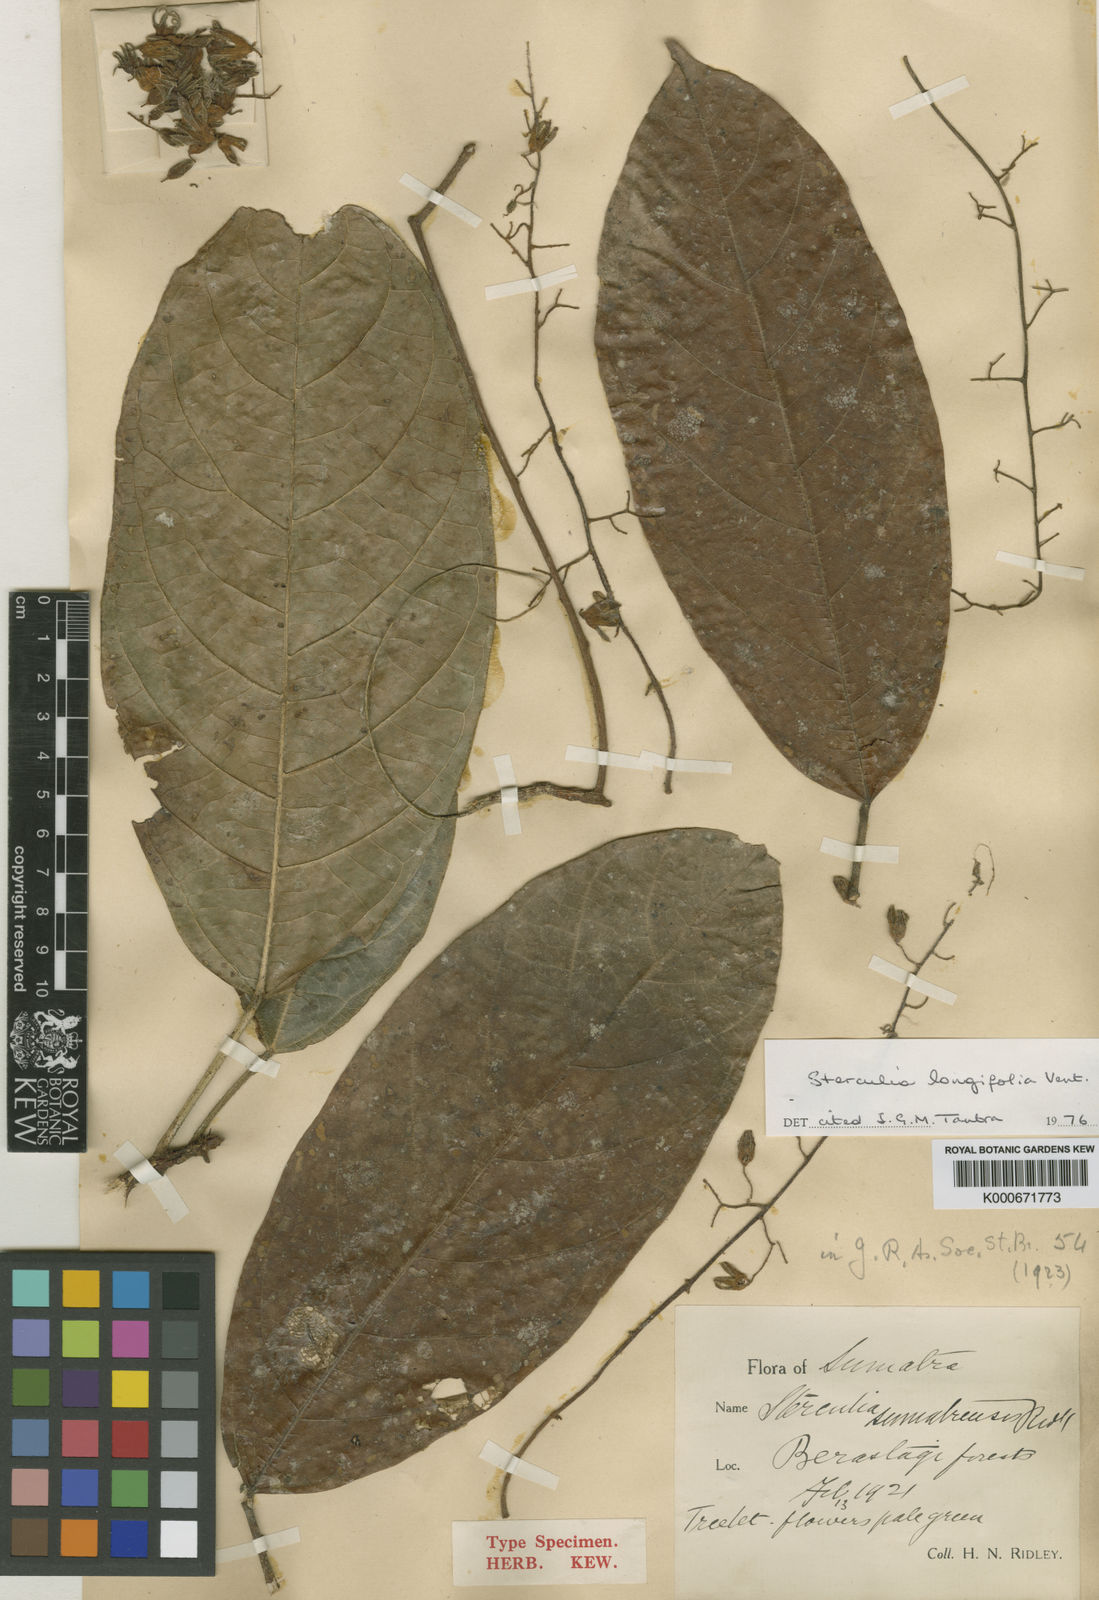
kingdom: Plantae
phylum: Tracheophyta
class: Magnoliopsida
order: Malvales
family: Malvaceae
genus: Sterculia
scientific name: Sterculia longifolia
